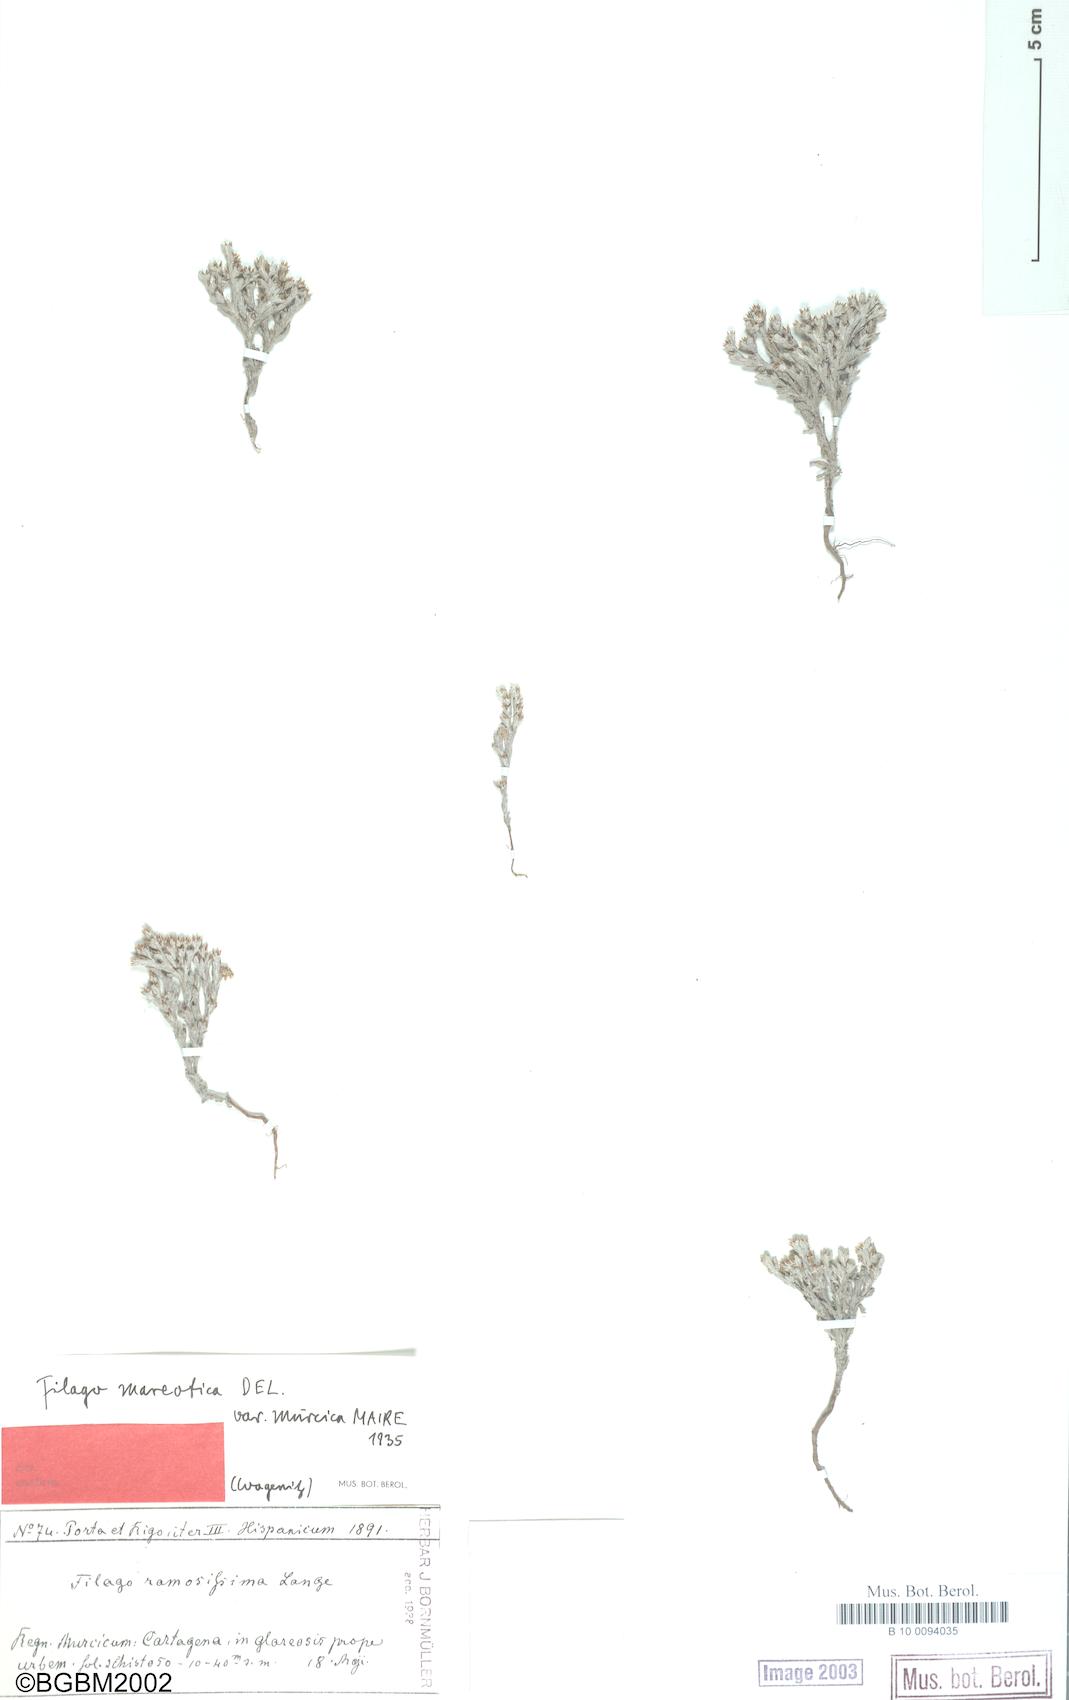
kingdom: Plantae
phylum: Tracheophyta
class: Magnoliopsida
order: Asterales
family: Asteraceae
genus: Filago
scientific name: Filago mareotica
